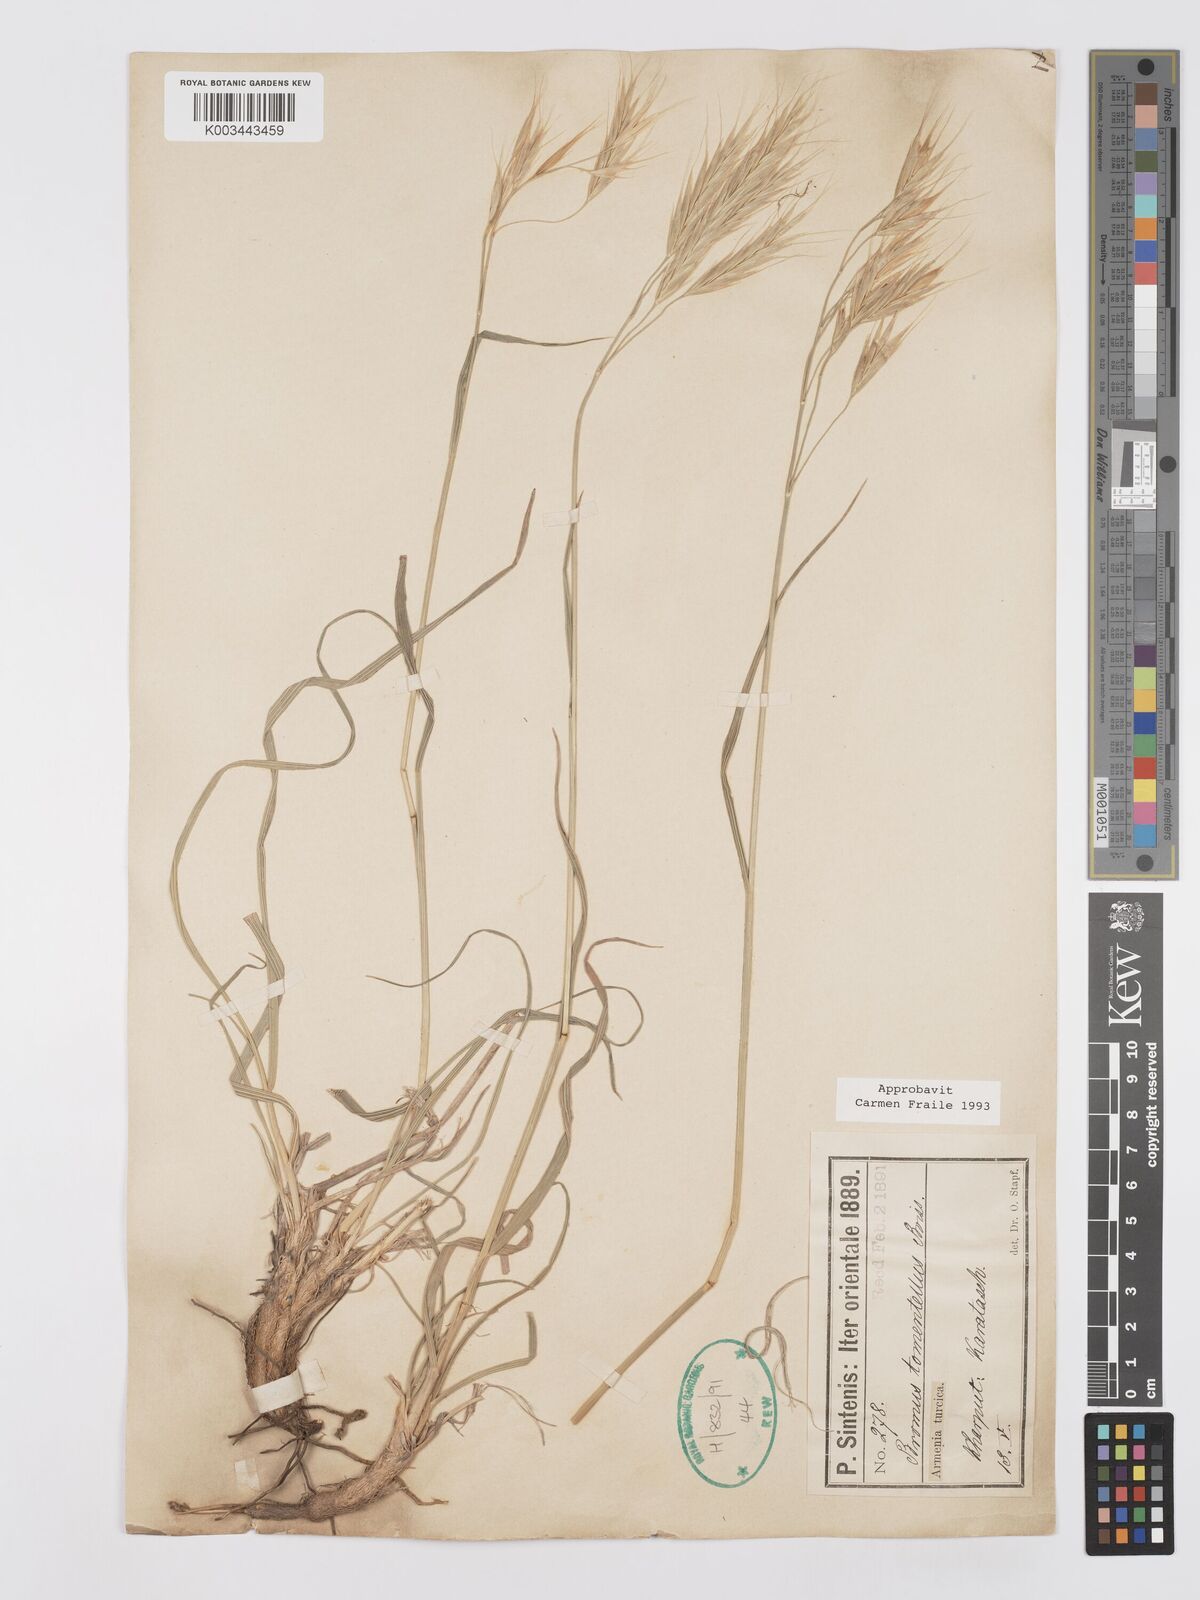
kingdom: Plantae
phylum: Tracheophyta
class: Liliopsida
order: Poales
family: Poaceae
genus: Bromus
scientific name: Bromus tomentellus
